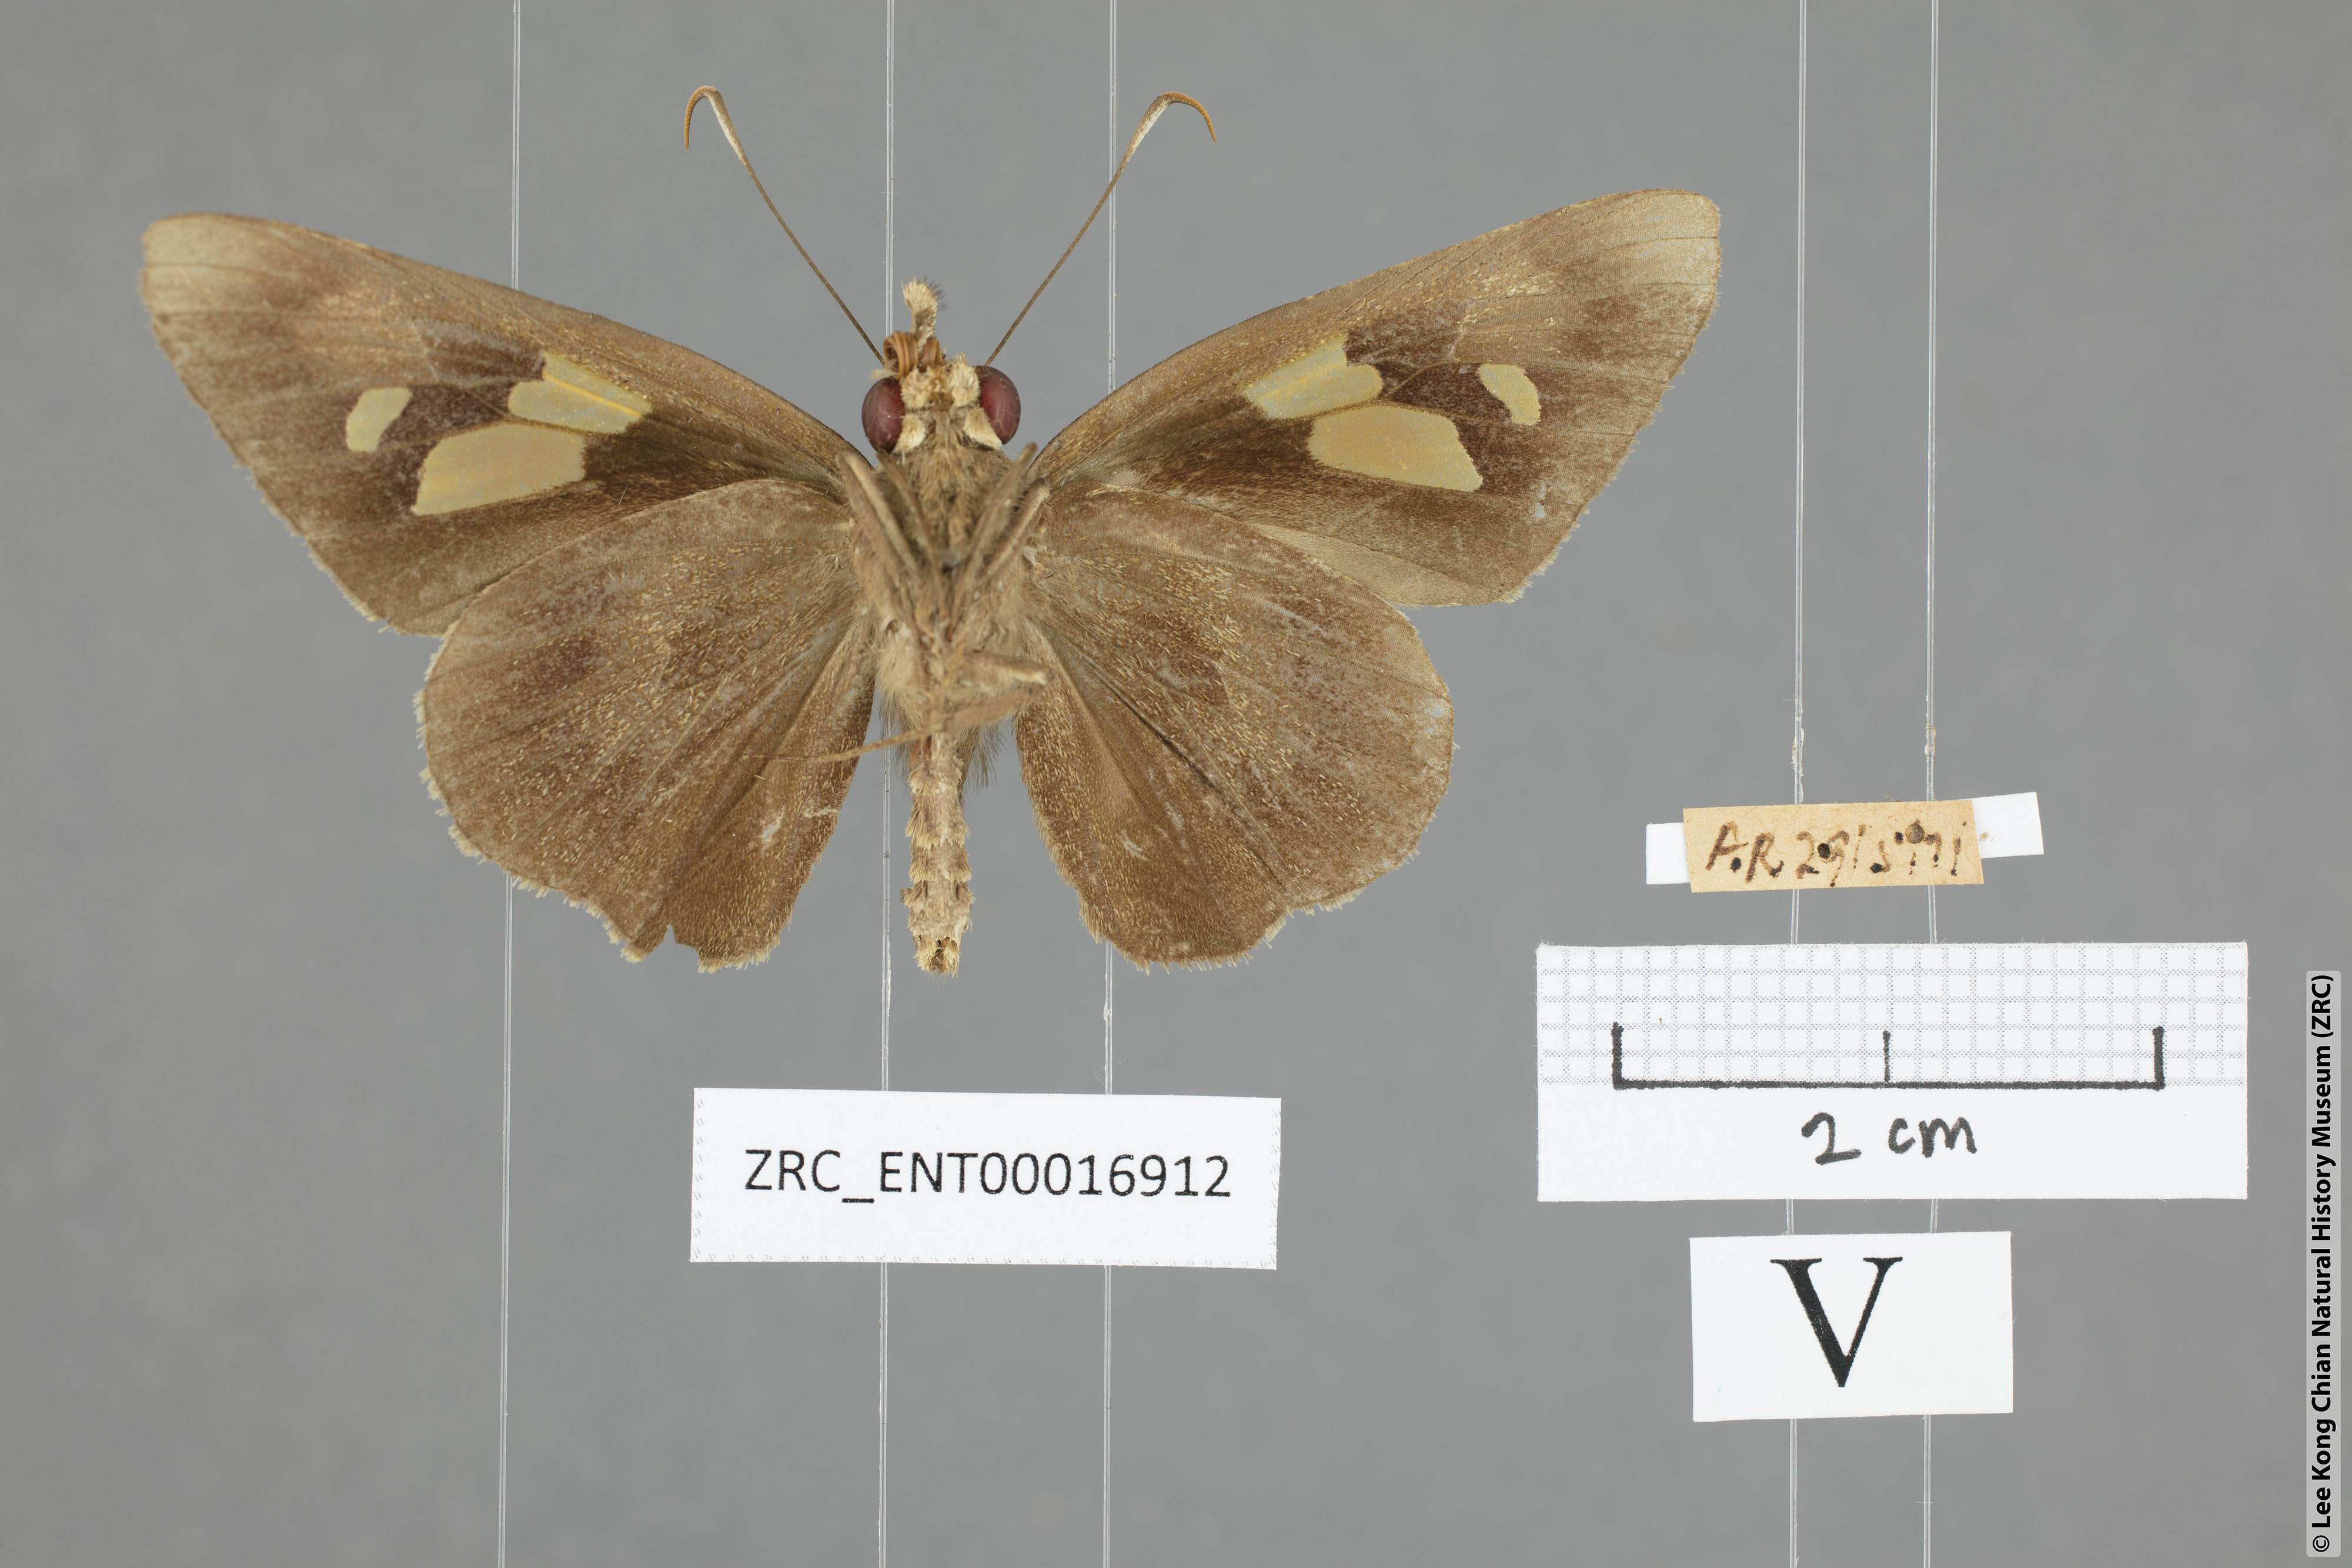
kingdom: Animalia
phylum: Arthropoda
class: Insecta
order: Lepidoptera
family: Hesperiidae
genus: Erionota
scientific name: Erionota
